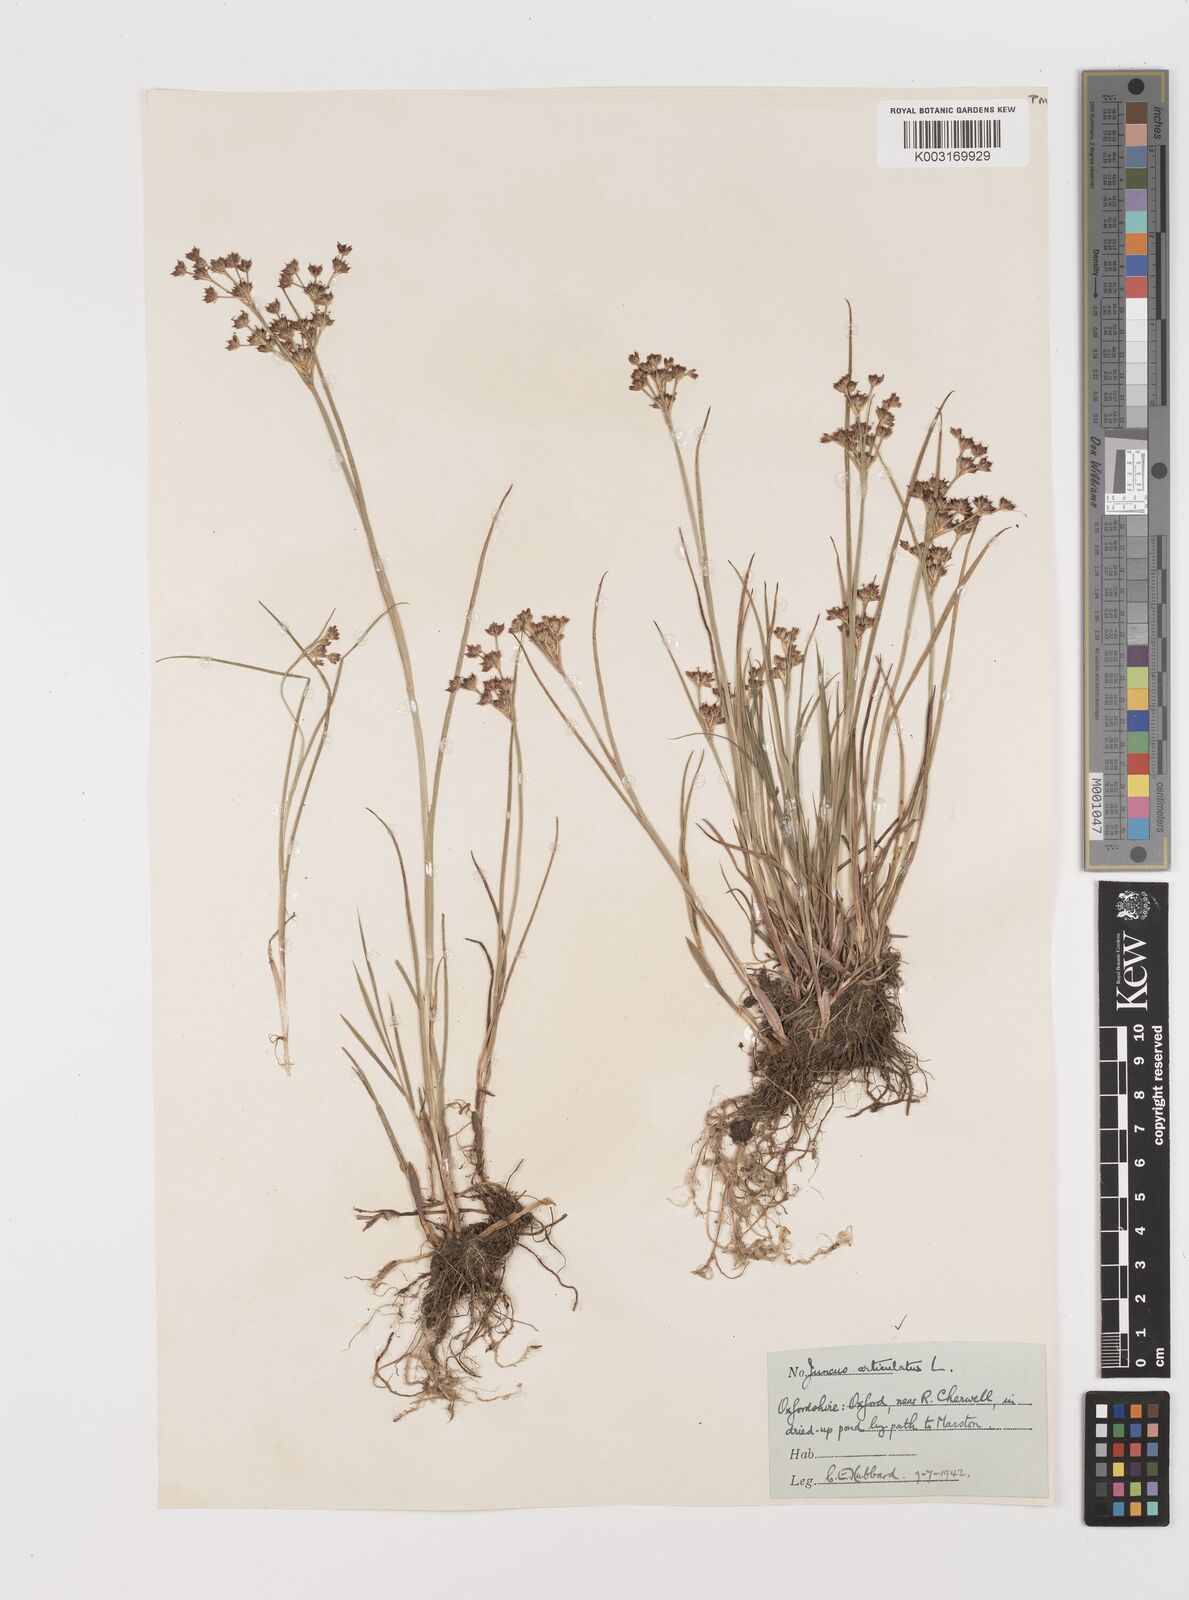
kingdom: Plantae
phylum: Tracheophyta
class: Liliopsida
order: Poales
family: Juncaceae
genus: Juncus
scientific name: Juncus articulatus
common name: Jointed rush
